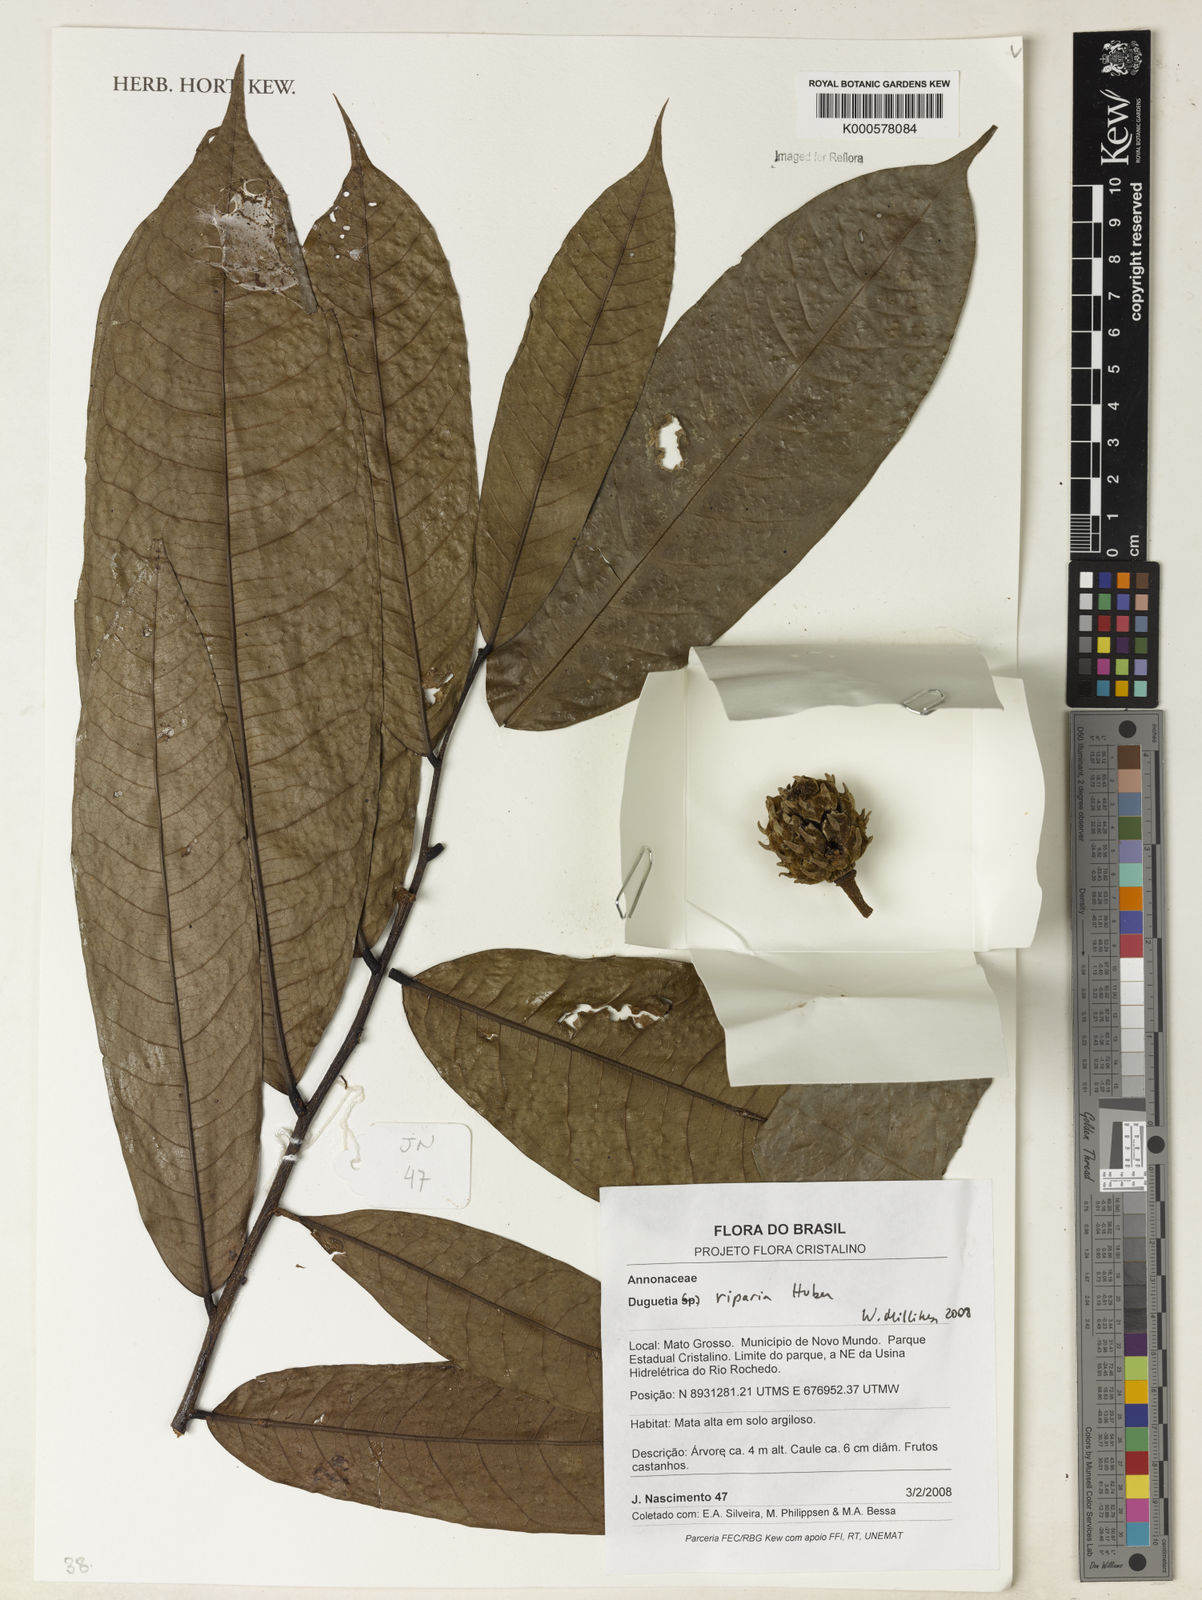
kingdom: Plantae
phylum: Tracheophyta
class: Magnoliopsida
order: Magnoliales
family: Annonaceae
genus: Duguetia
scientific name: Duguetia riparia
